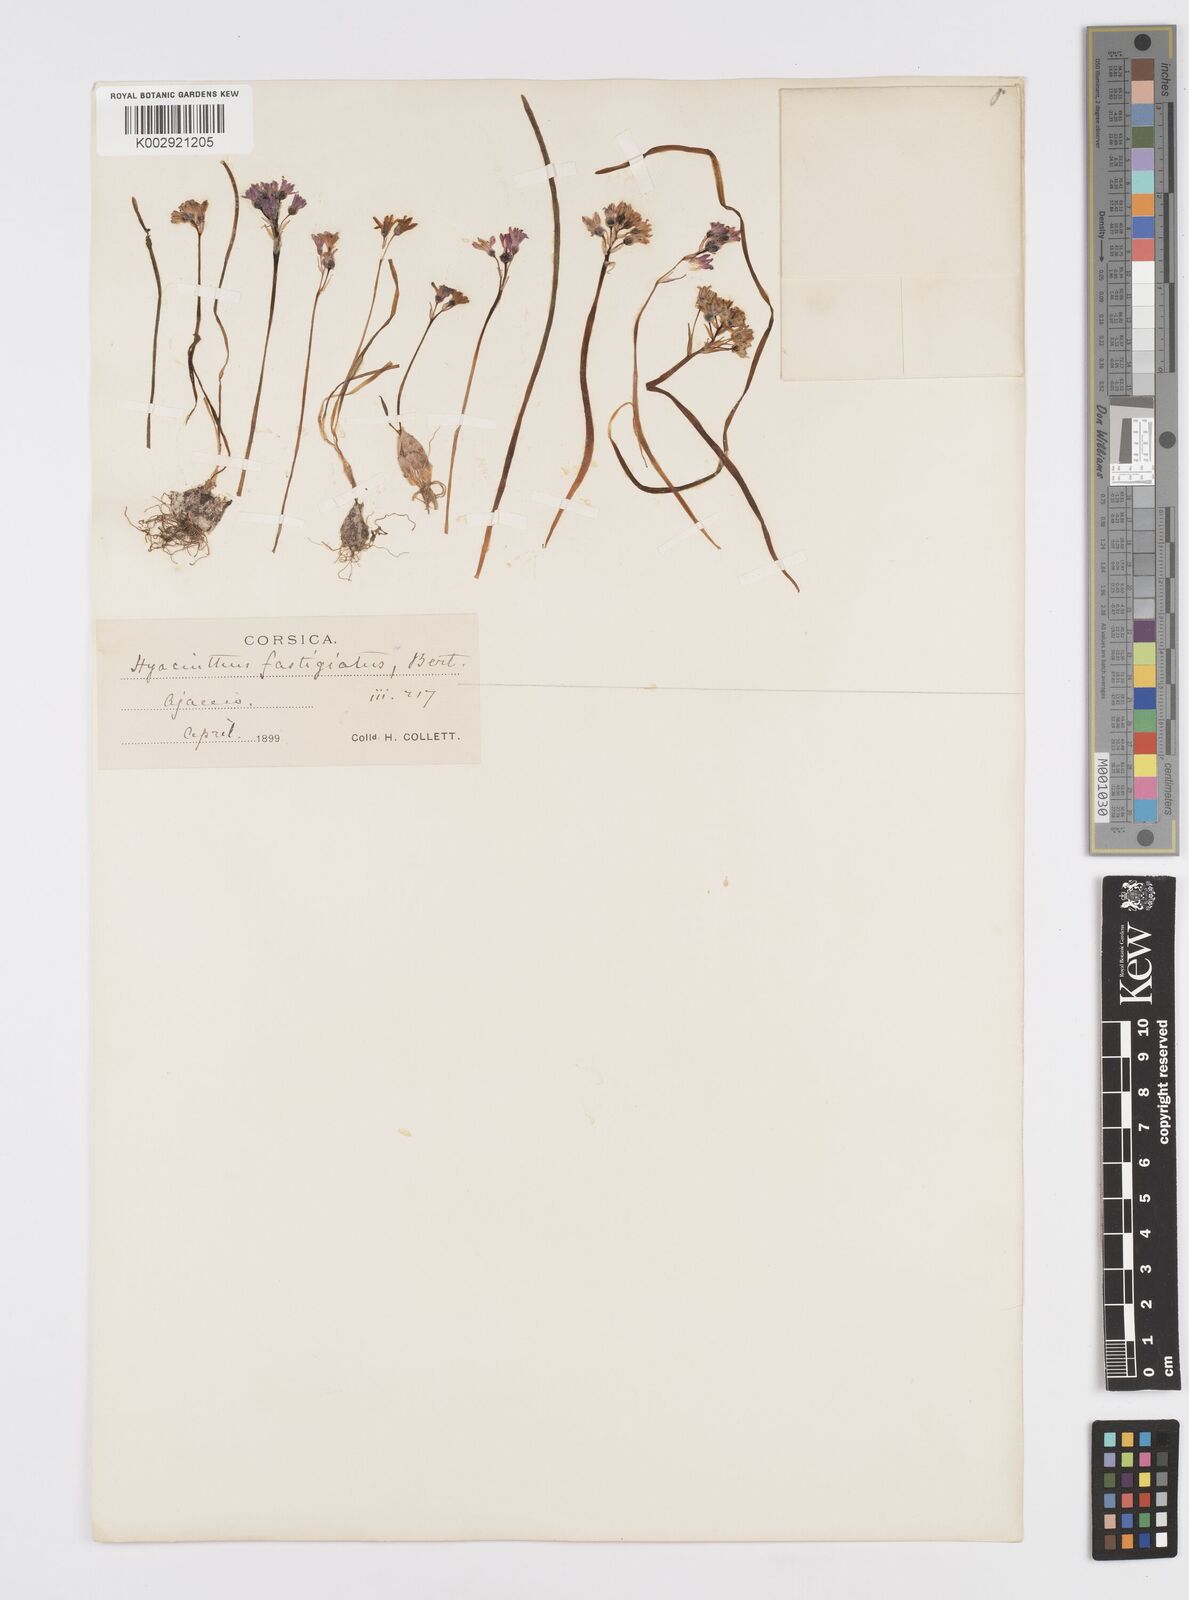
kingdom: Plantae
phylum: Tracheophyta
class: Liliopsida
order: Asparagales
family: Asparagaceae
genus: Brimeura
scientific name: Brimeura fastigiata
